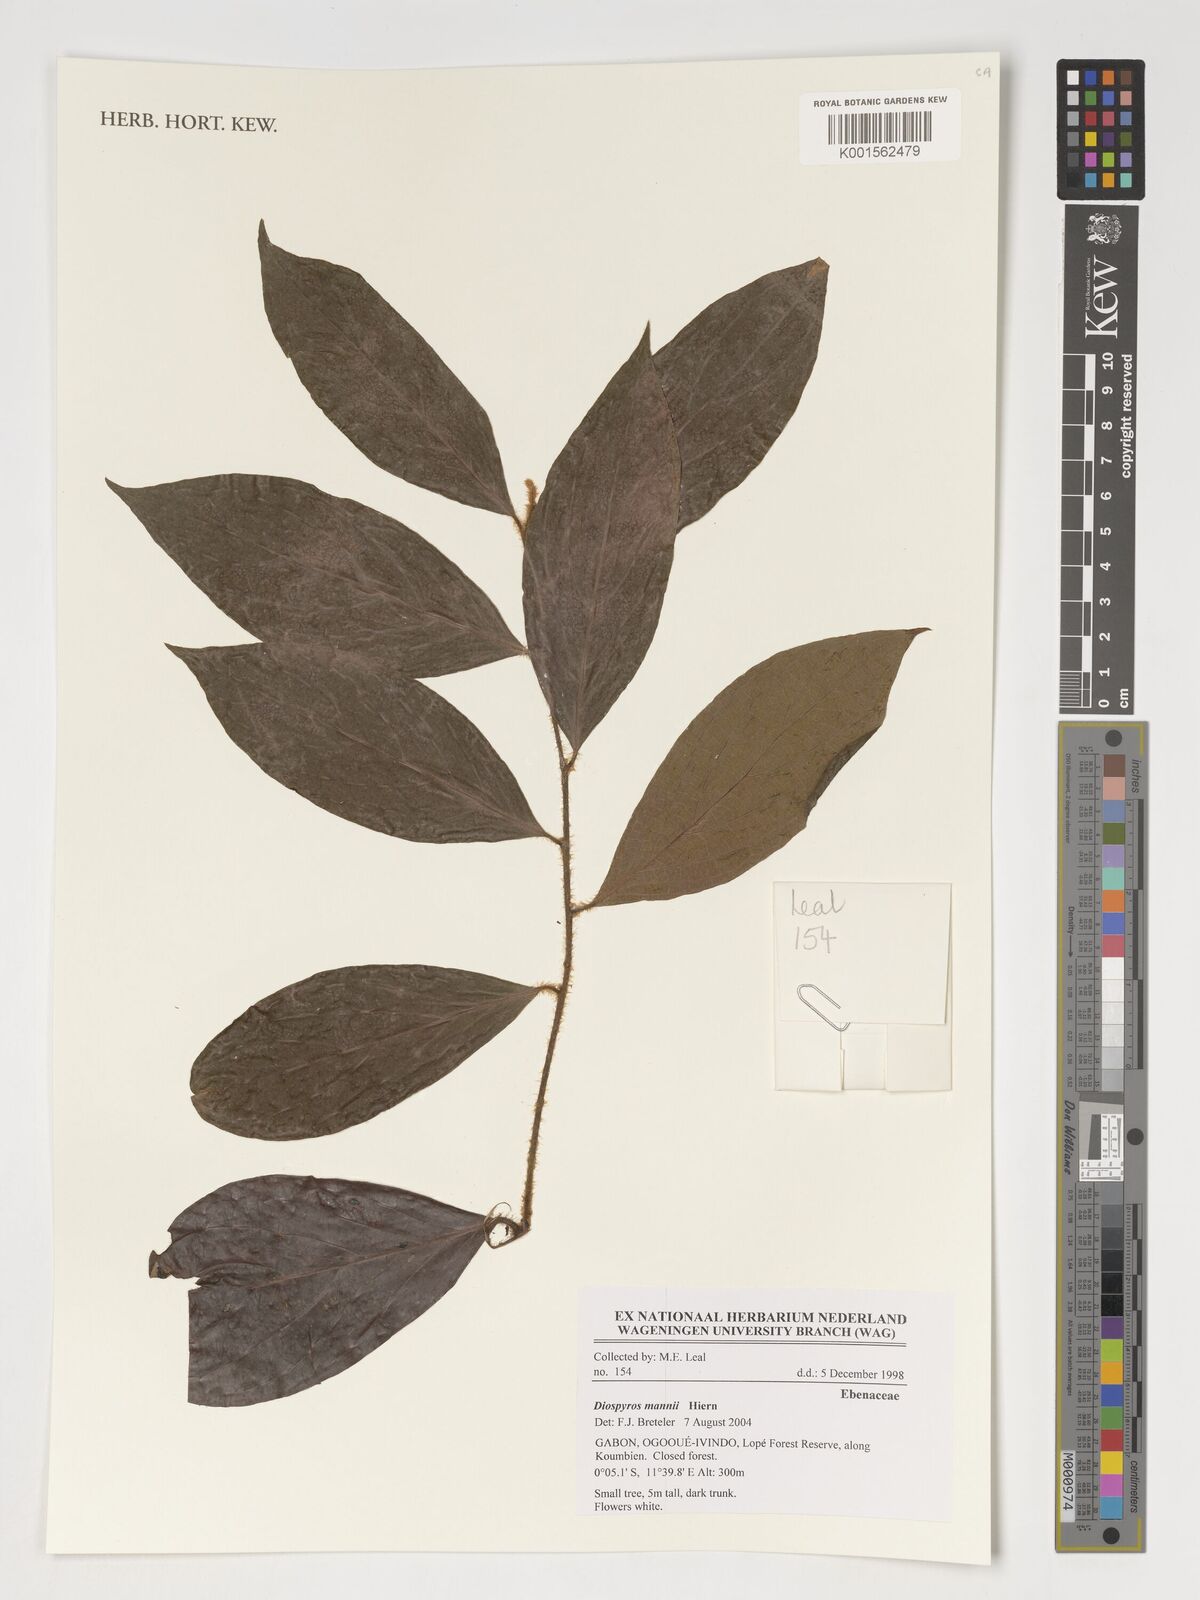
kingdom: Plantae
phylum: Tracheophyta
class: Magnoliopsida
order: Ericales
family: Ebenaceae
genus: Diospyros
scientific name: Diospyros mannii
